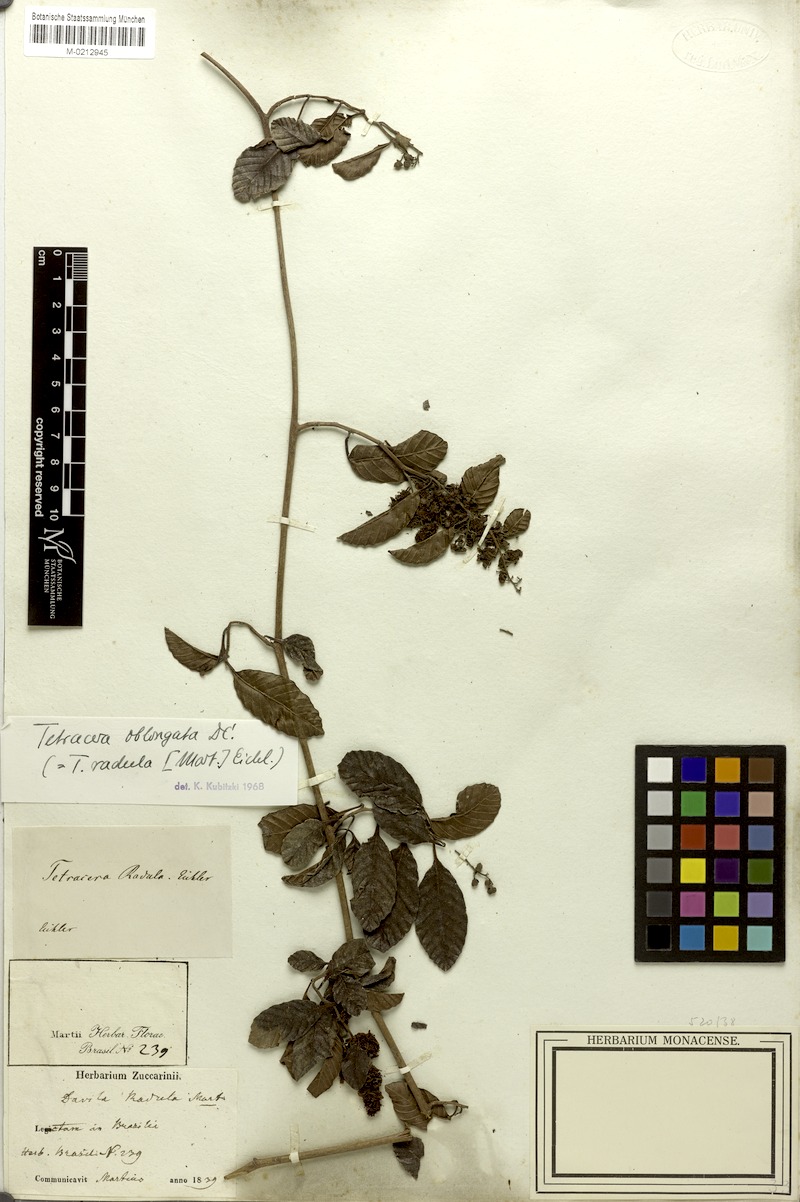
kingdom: Plantae
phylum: Tracheophyta
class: Magnoliopsida
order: Dilleniales
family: Dilleniaceae
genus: Tetracera
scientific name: Tetracera oblongata
